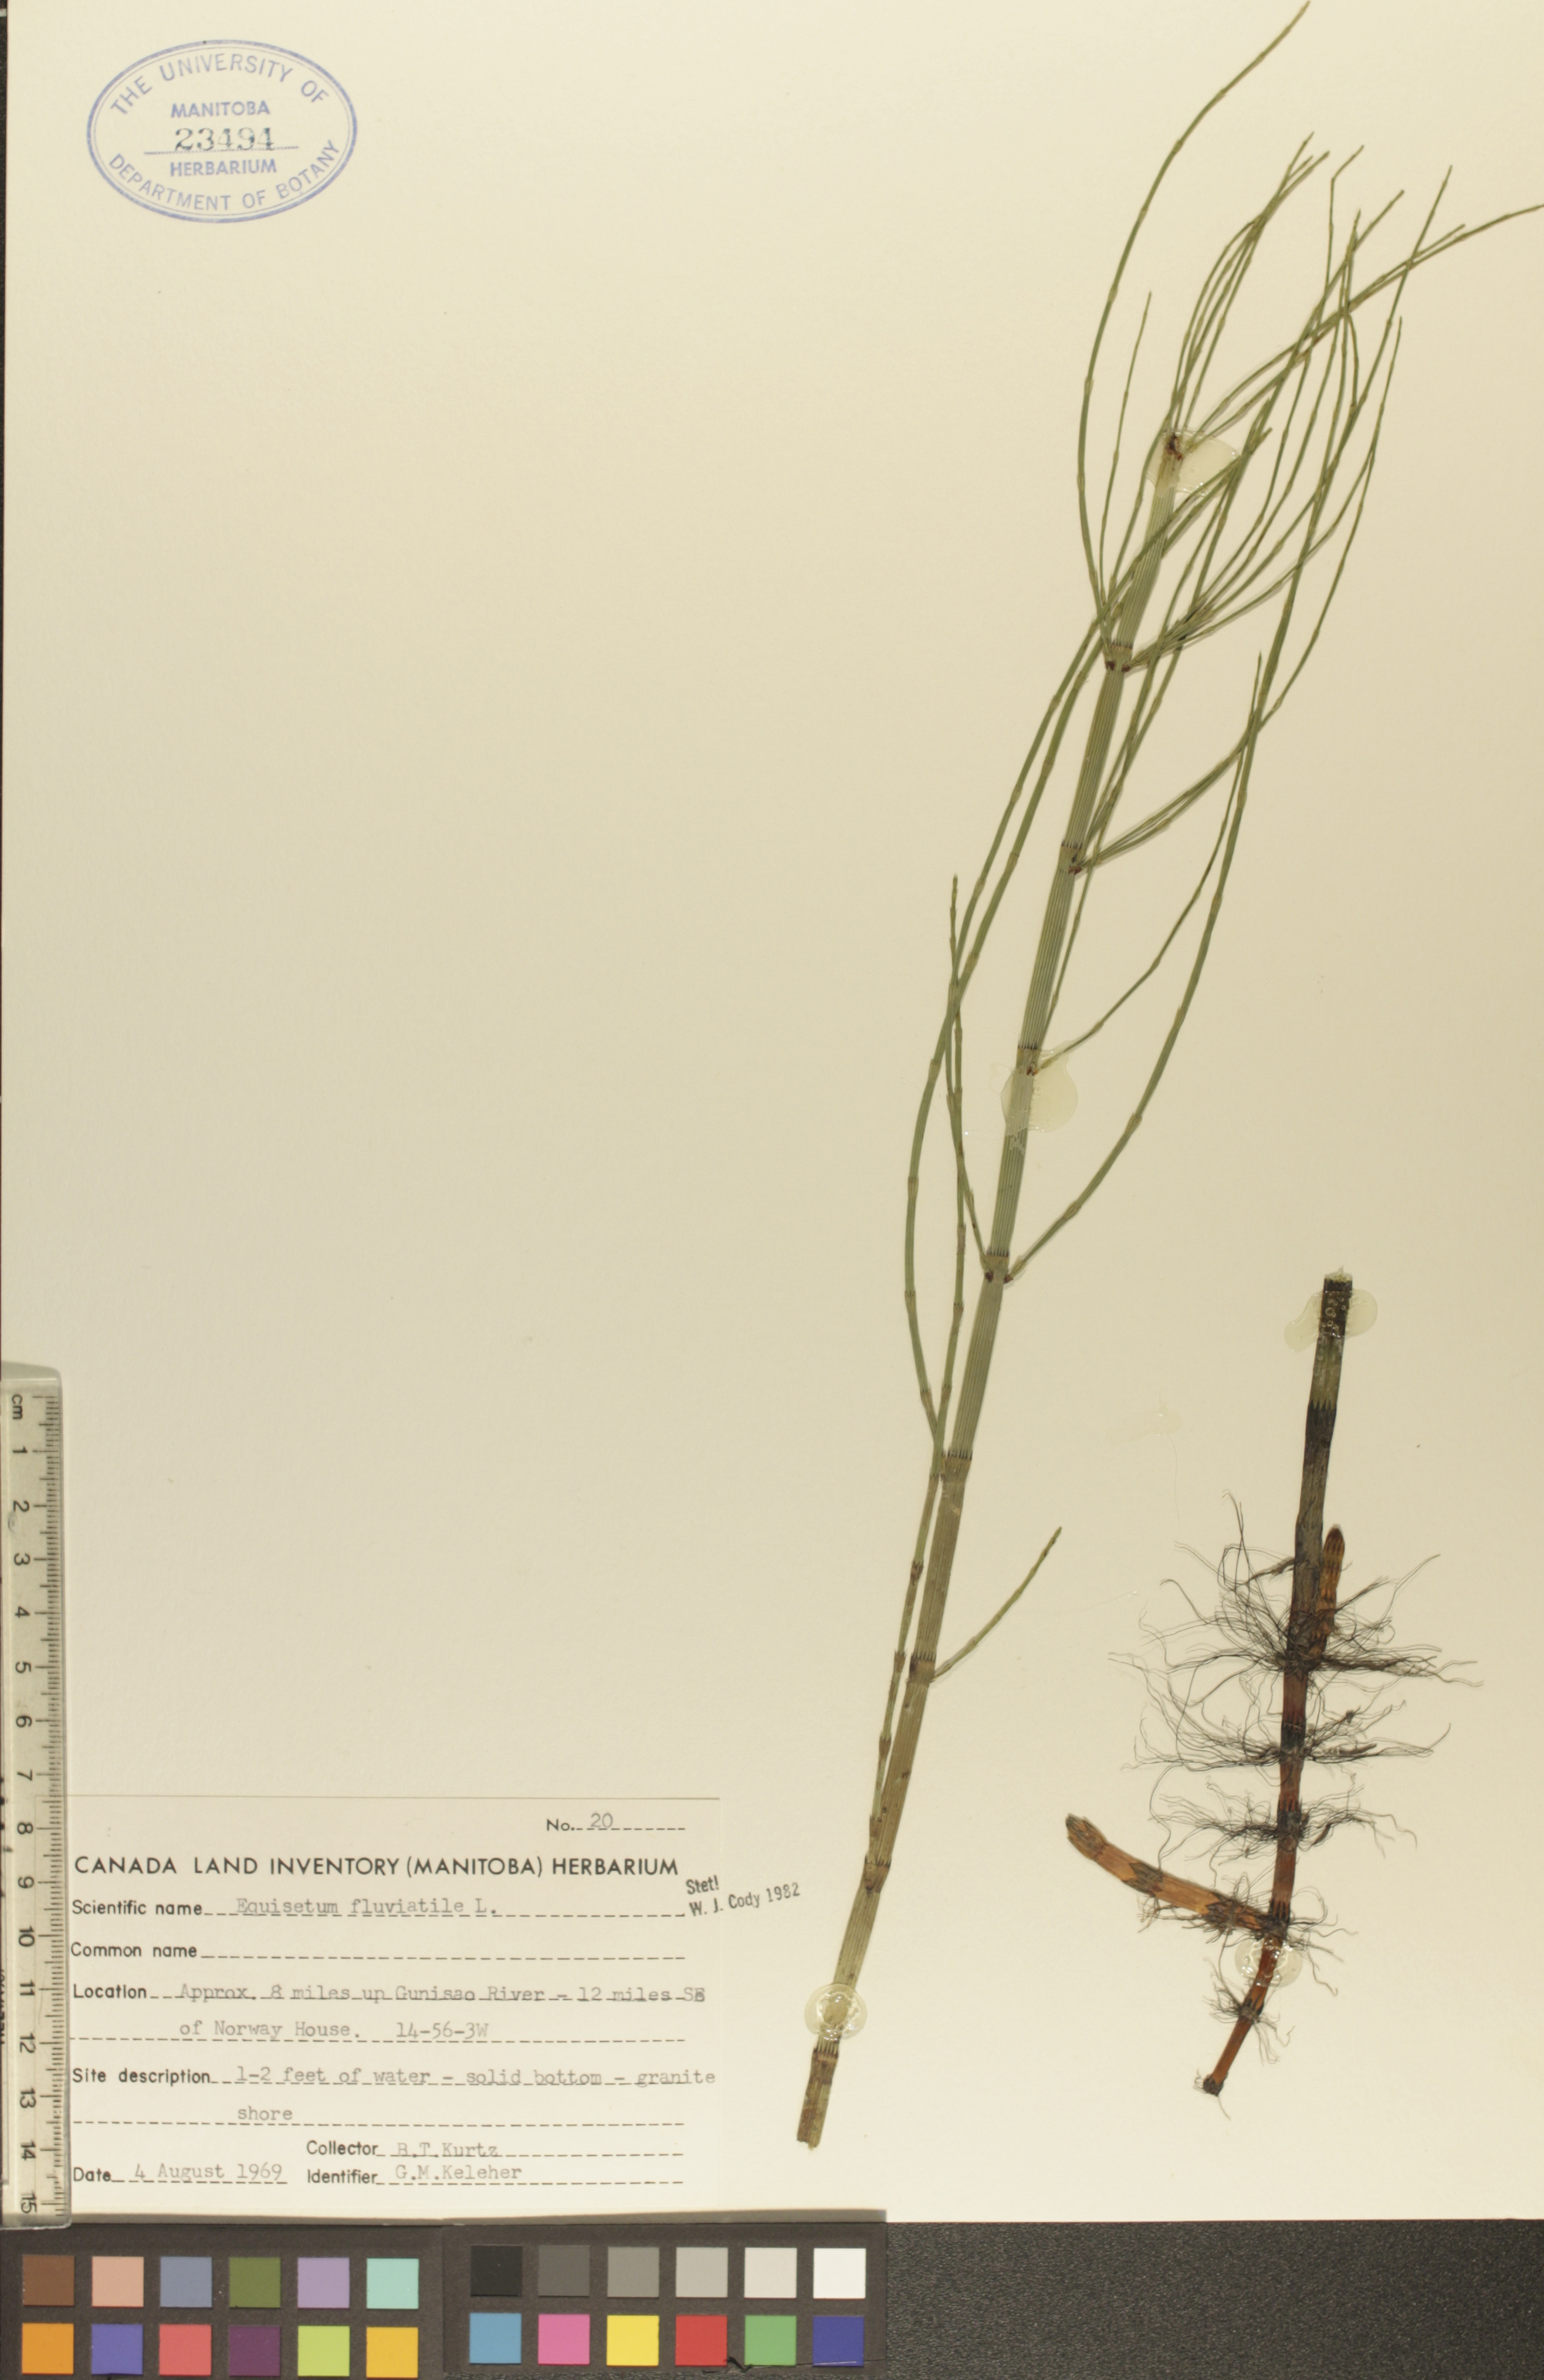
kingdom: Plantae
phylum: Tracheophyta
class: Polypodiopsida
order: Equisetales
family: Equisetaceae
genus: Equisetum
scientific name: Equisetum fluviatile
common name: Water horsetail
